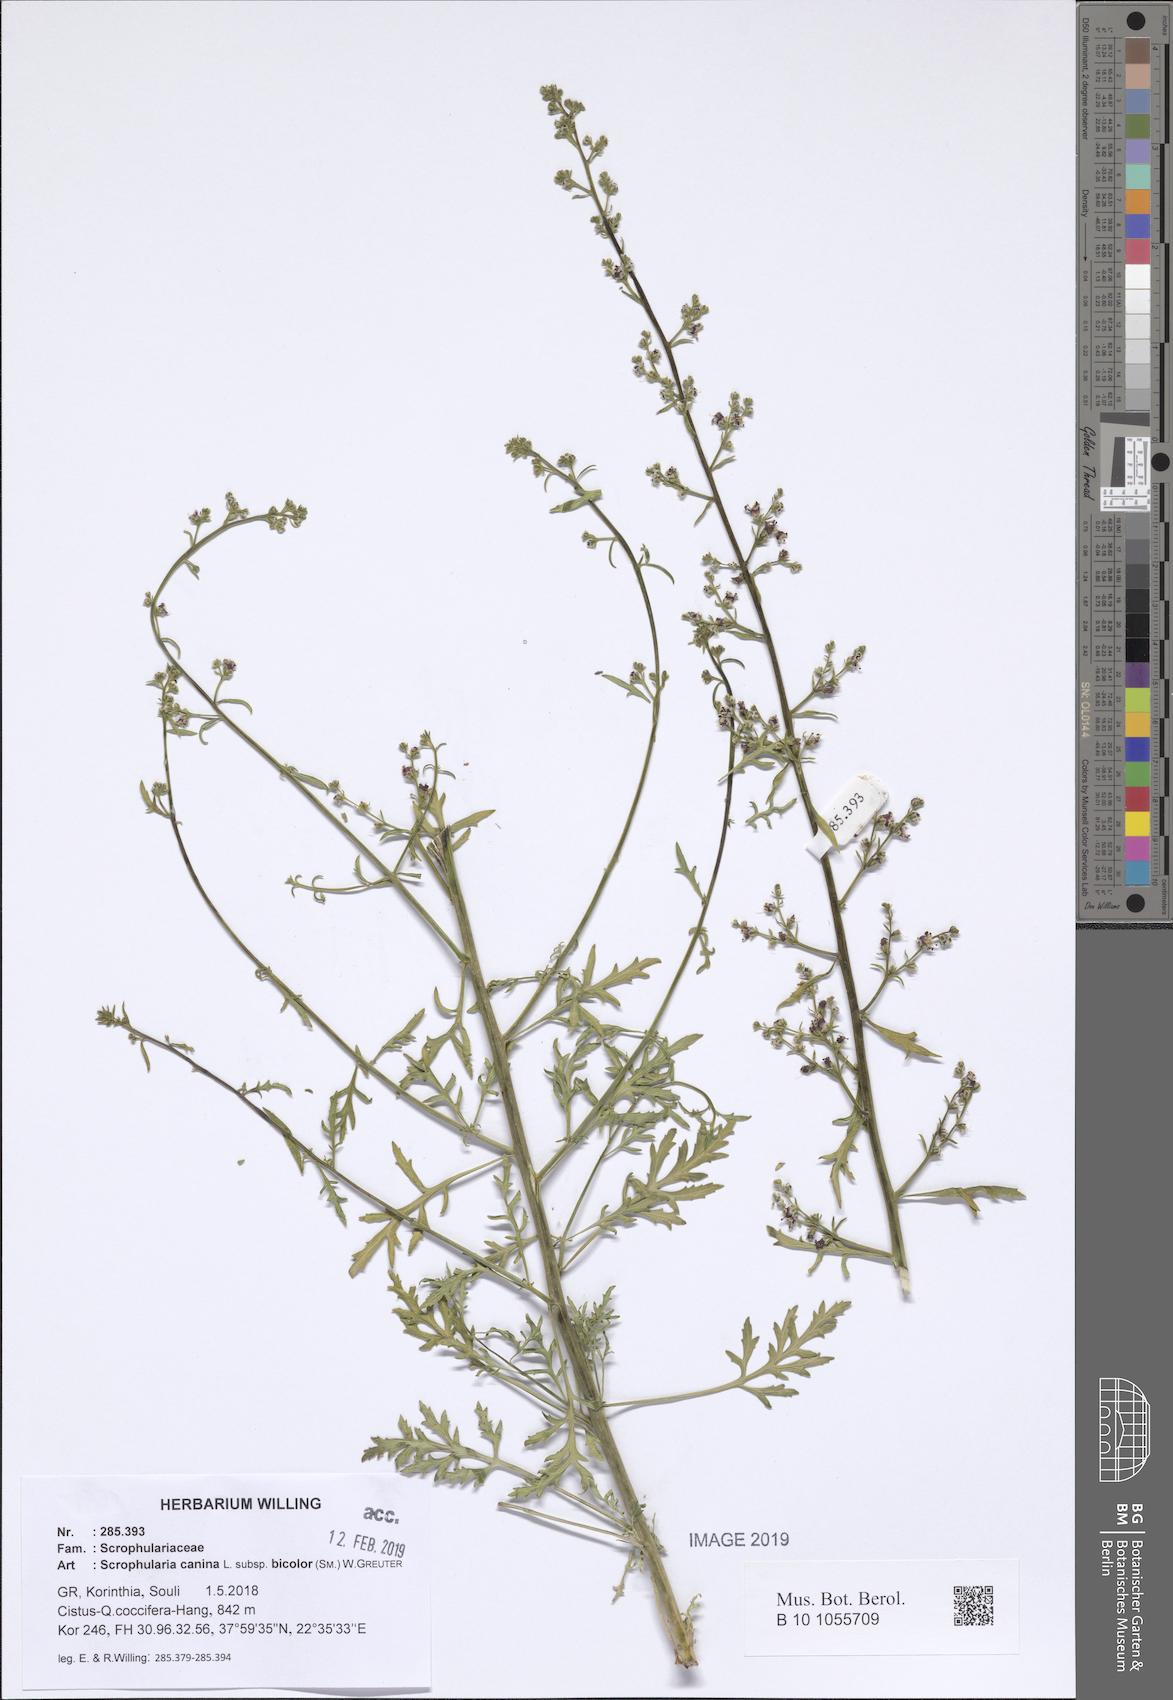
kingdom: Plantae
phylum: Tracheophyta
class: Magnoliopsida
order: Lamiales
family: Scrophulariaceae
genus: Scrophularia
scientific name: Scrophularia canina
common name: French figwort
